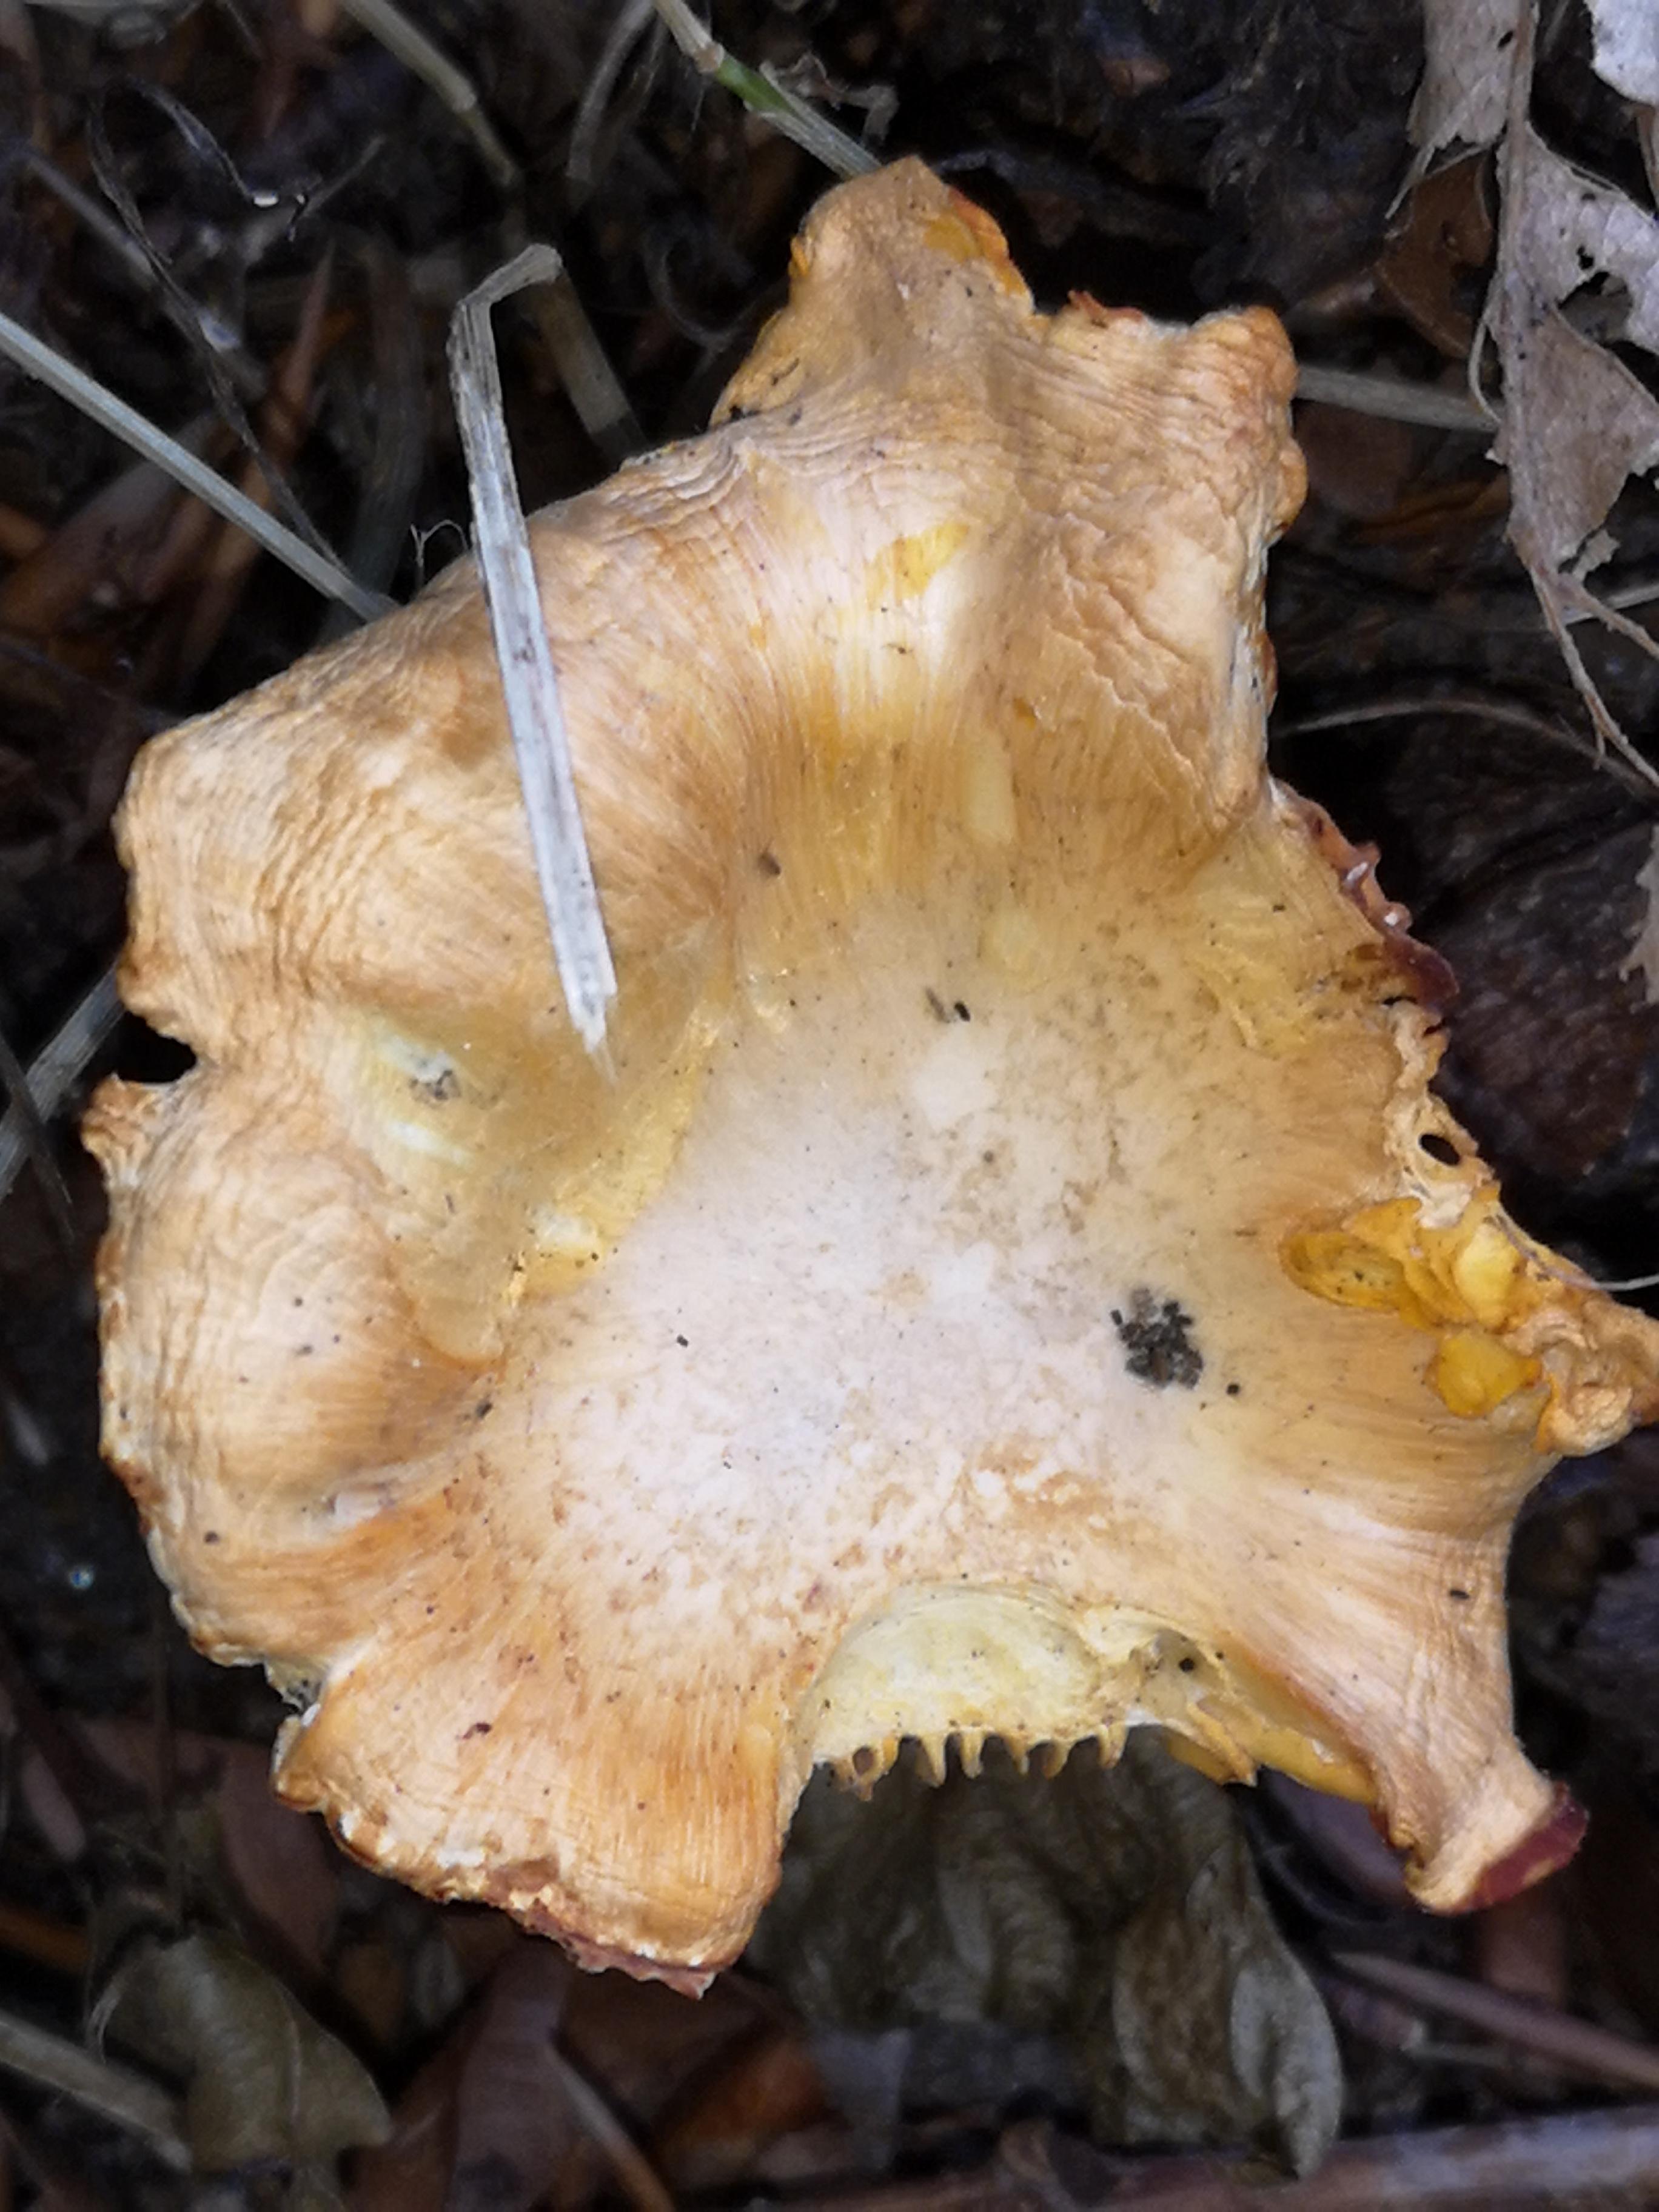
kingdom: Fungi
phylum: Basidiomycota
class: Agaricomycetes
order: Cantharellales
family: Hydnaceae
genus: Cantharellus
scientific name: Cantharellus cibarius
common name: almindelig kantarel
